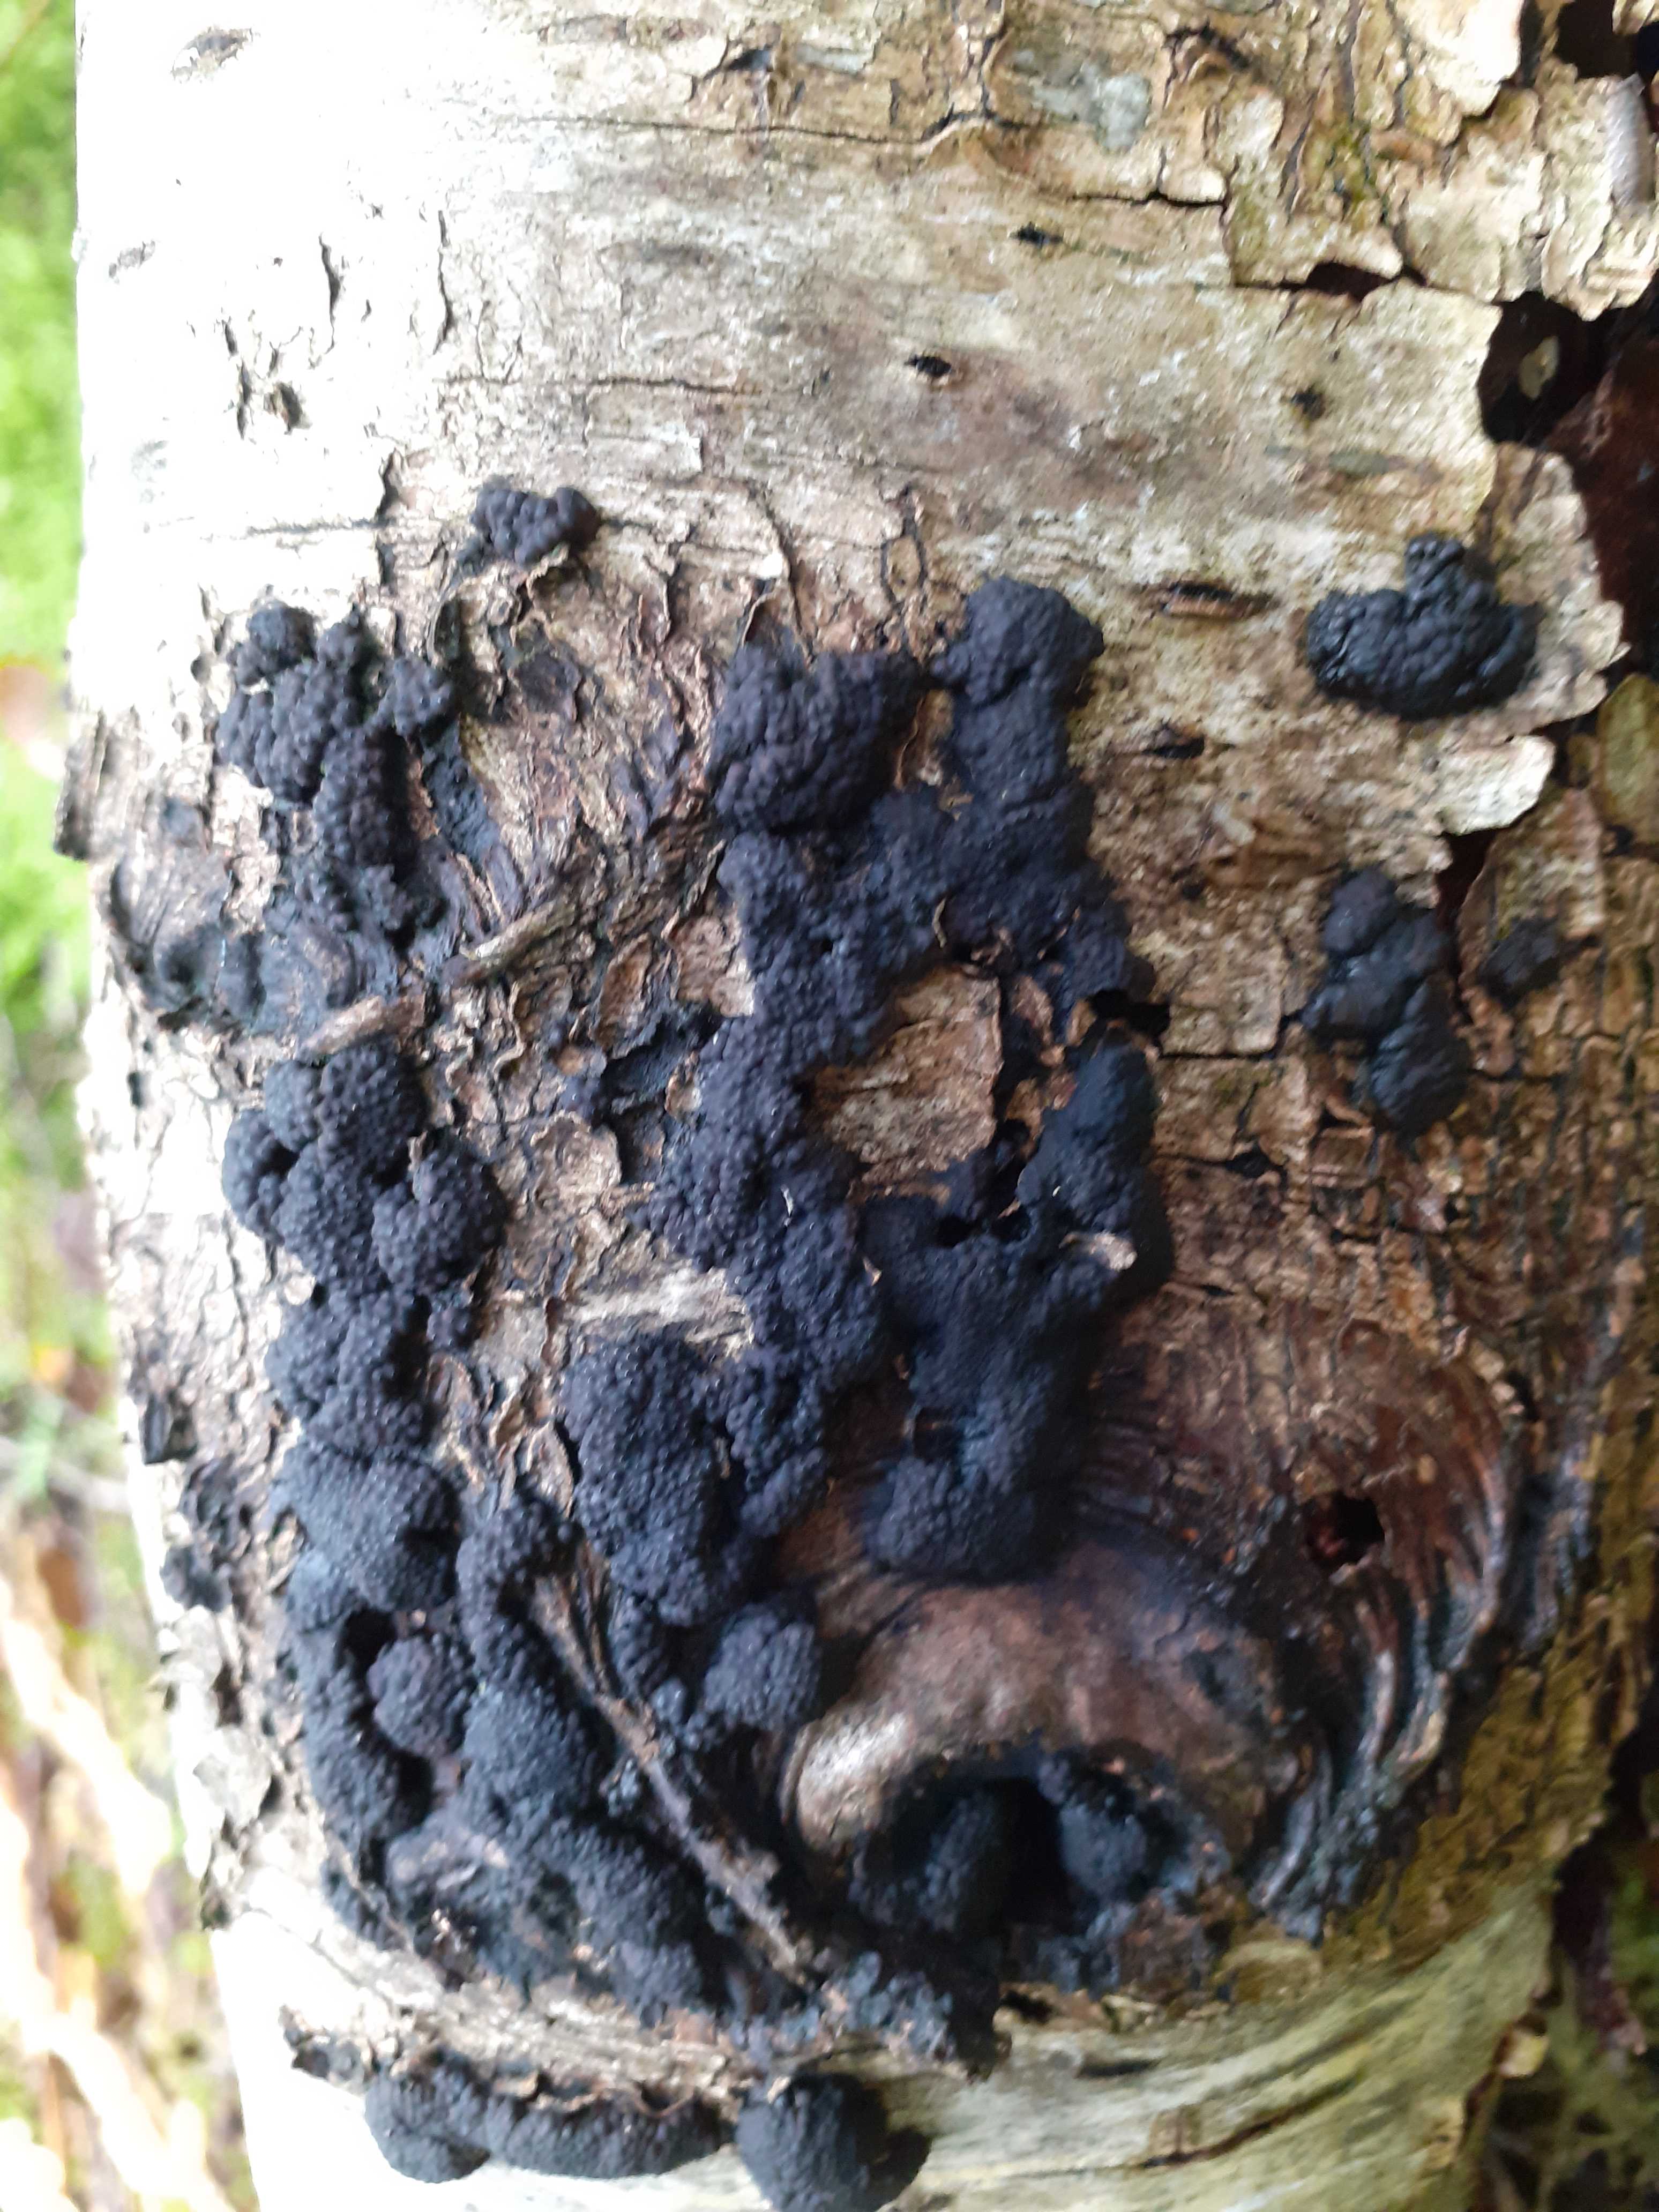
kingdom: Fungi
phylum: Ascomycota
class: Sordariomycetes
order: Xylariales
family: Hypoxylaceae
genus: Jackrogersella
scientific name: Jackrogersella multiformis
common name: foranderlig kulbær
